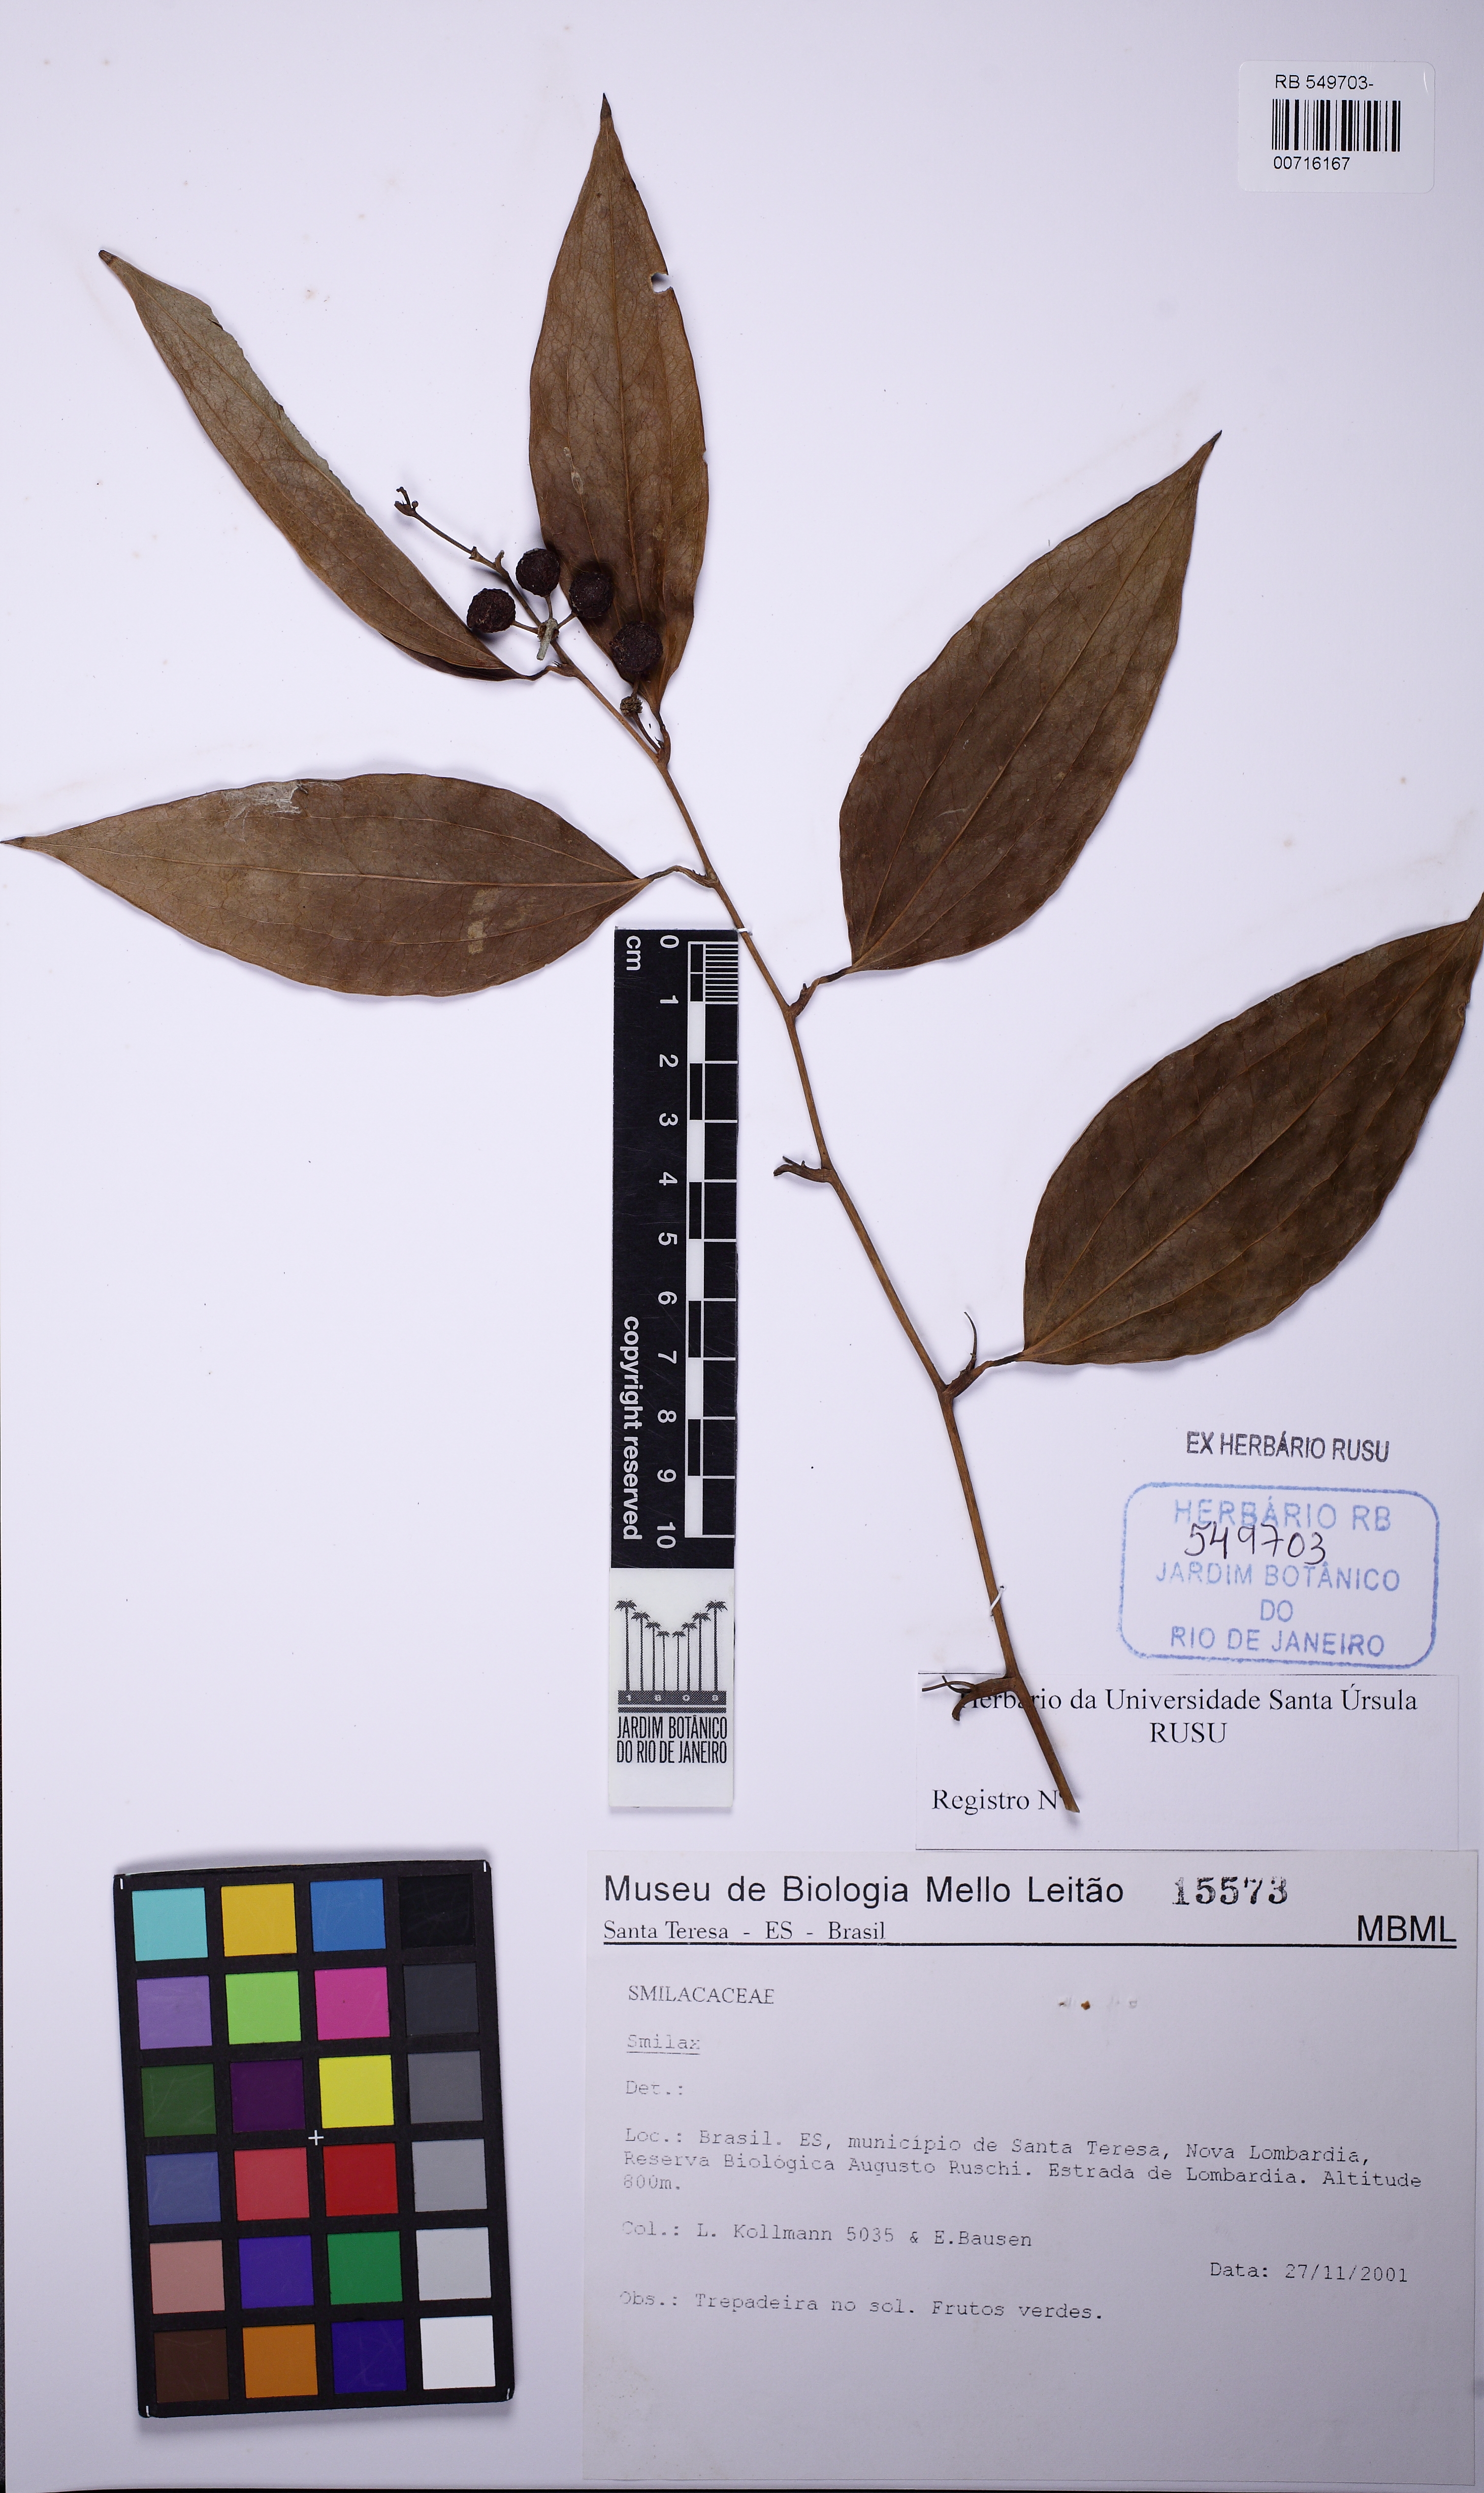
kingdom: Plantae
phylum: Tracheophyta
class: Liliopsida
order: Liliales
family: Smilacaceae
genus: Smilax
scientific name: Smilax
